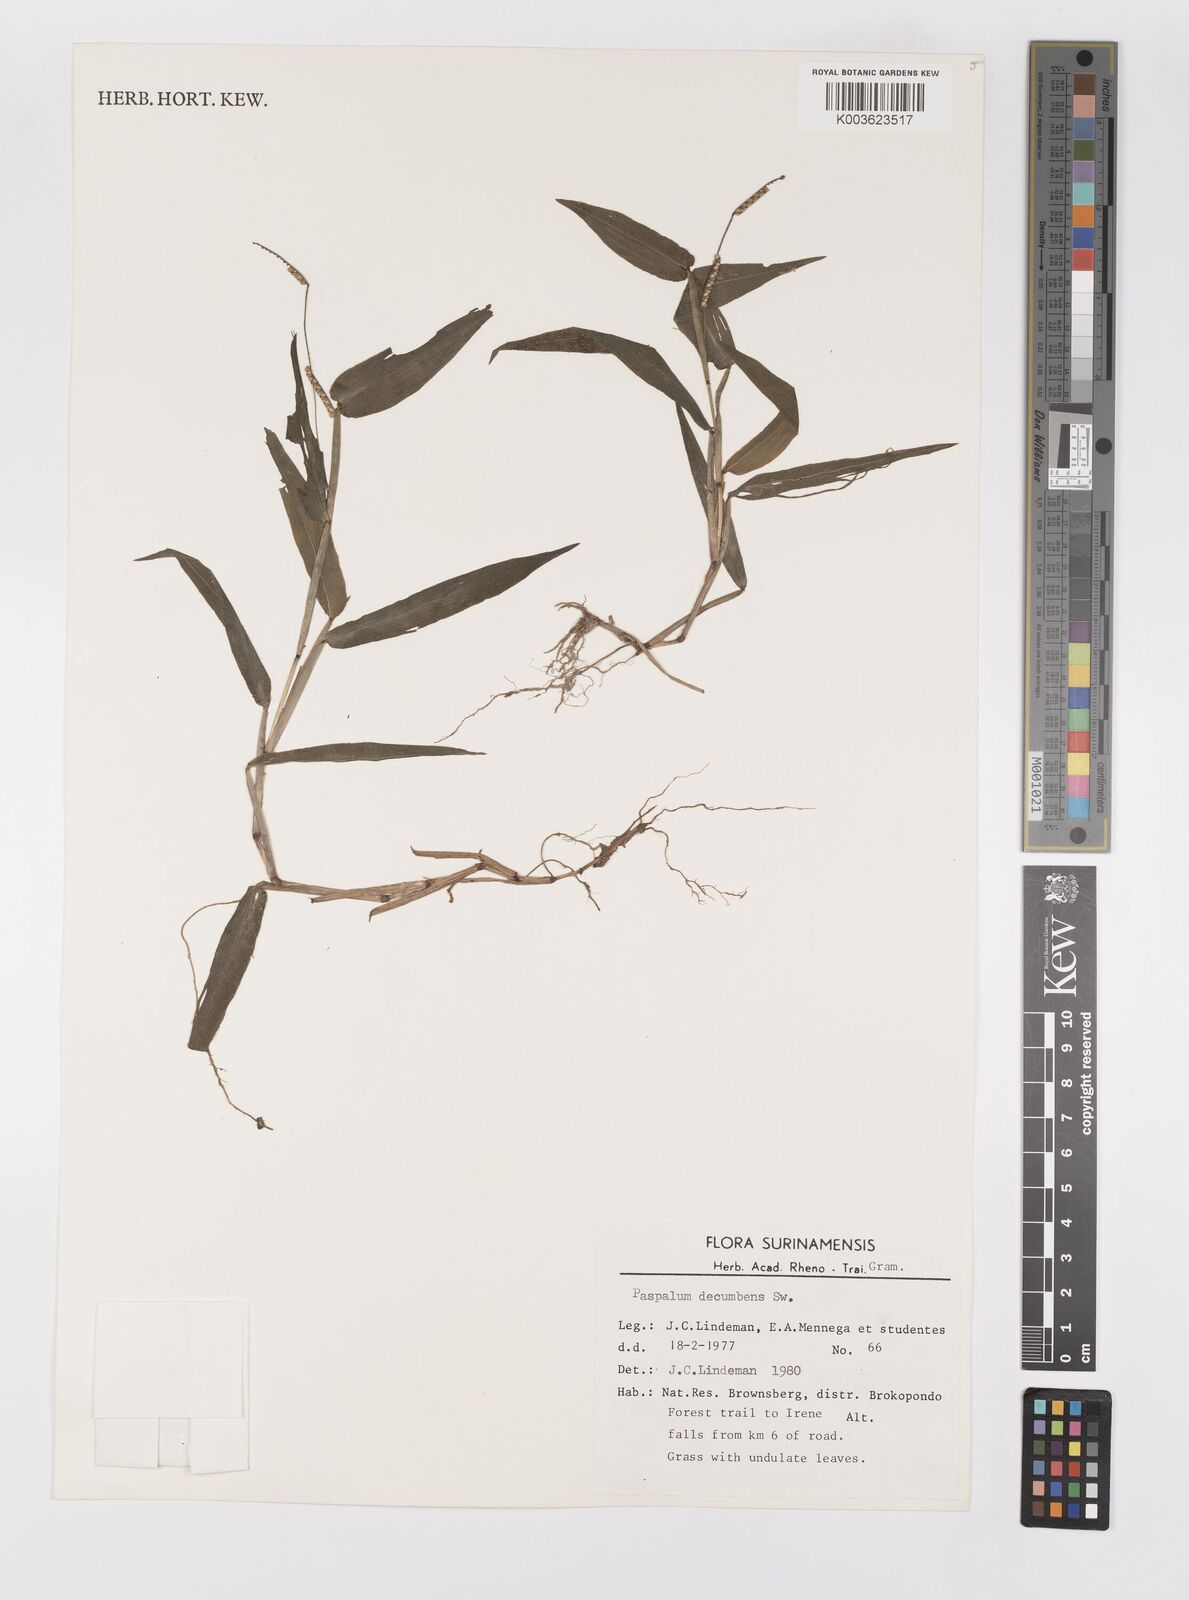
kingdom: Plantae
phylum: Tracheophyta
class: Liliopsida
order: Poales
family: Poaceae
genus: Paspalum
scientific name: Paspalum decumbens
